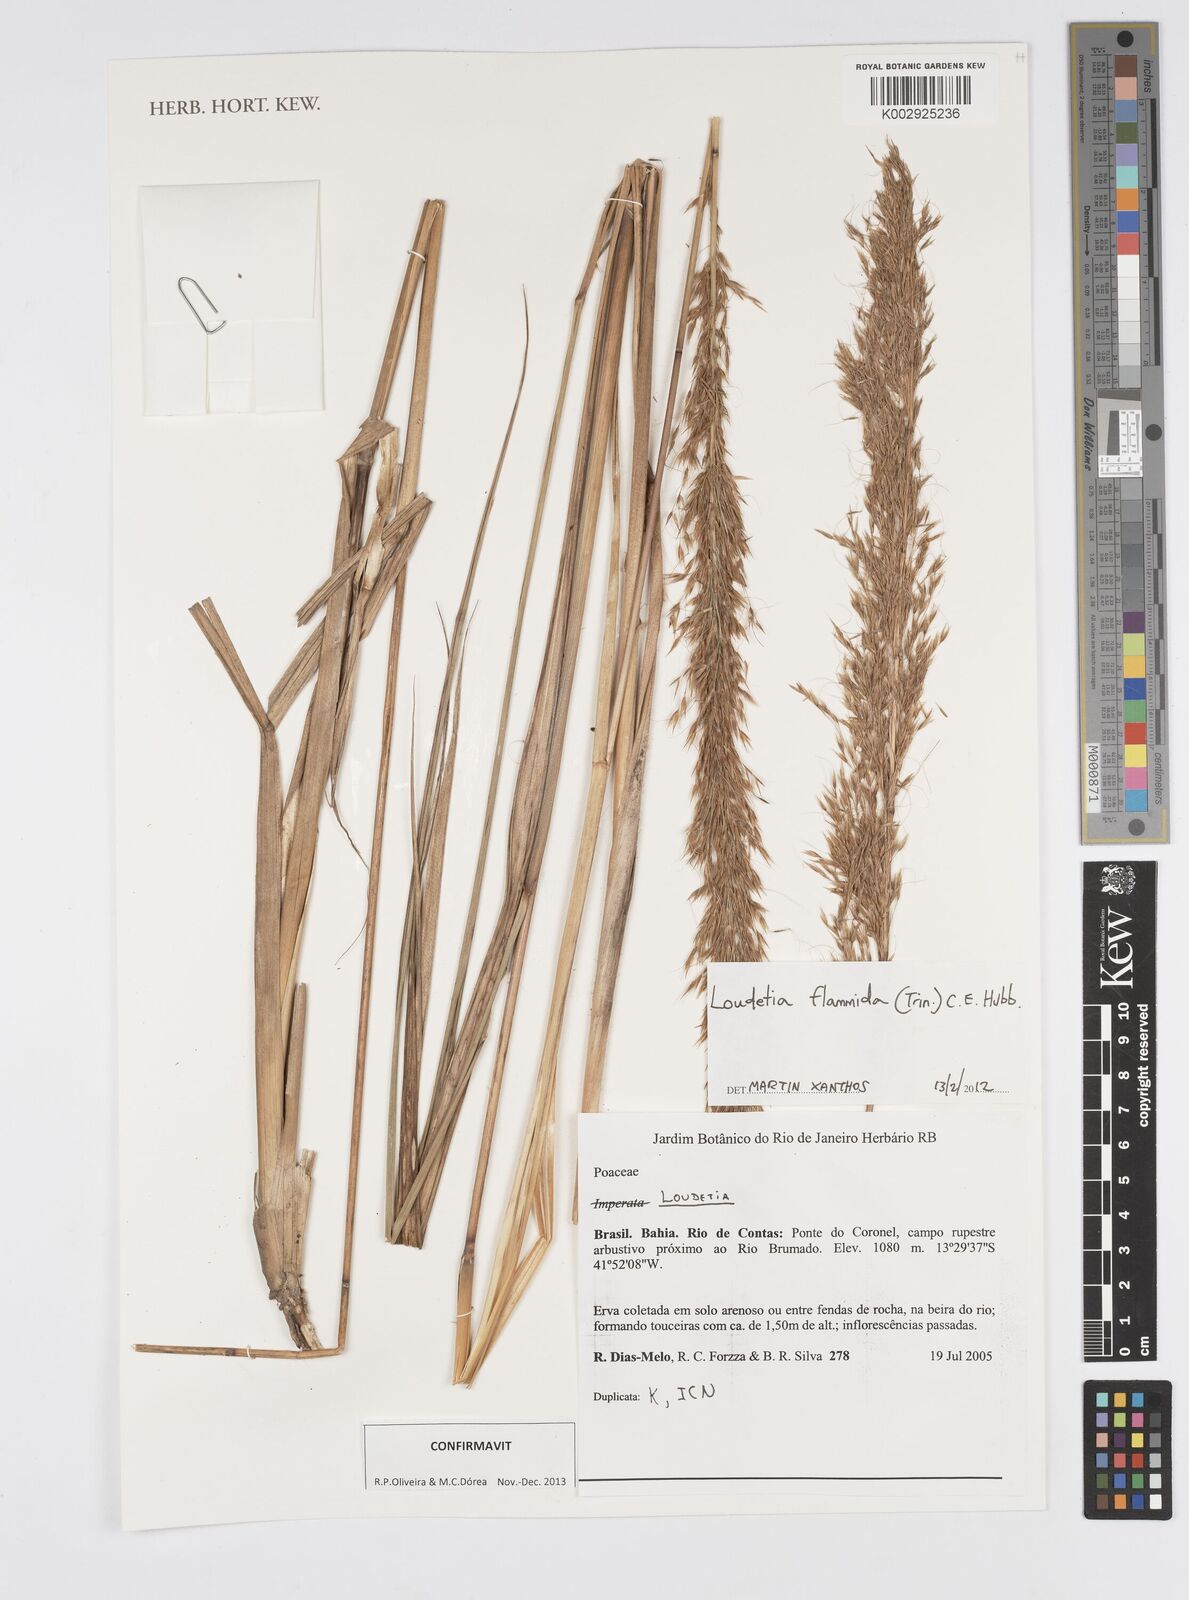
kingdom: Plantae
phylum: Tracheophyta
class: Liliopsida
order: Poales
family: Poaceae
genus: Loudetia
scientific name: Loudetia flammida
